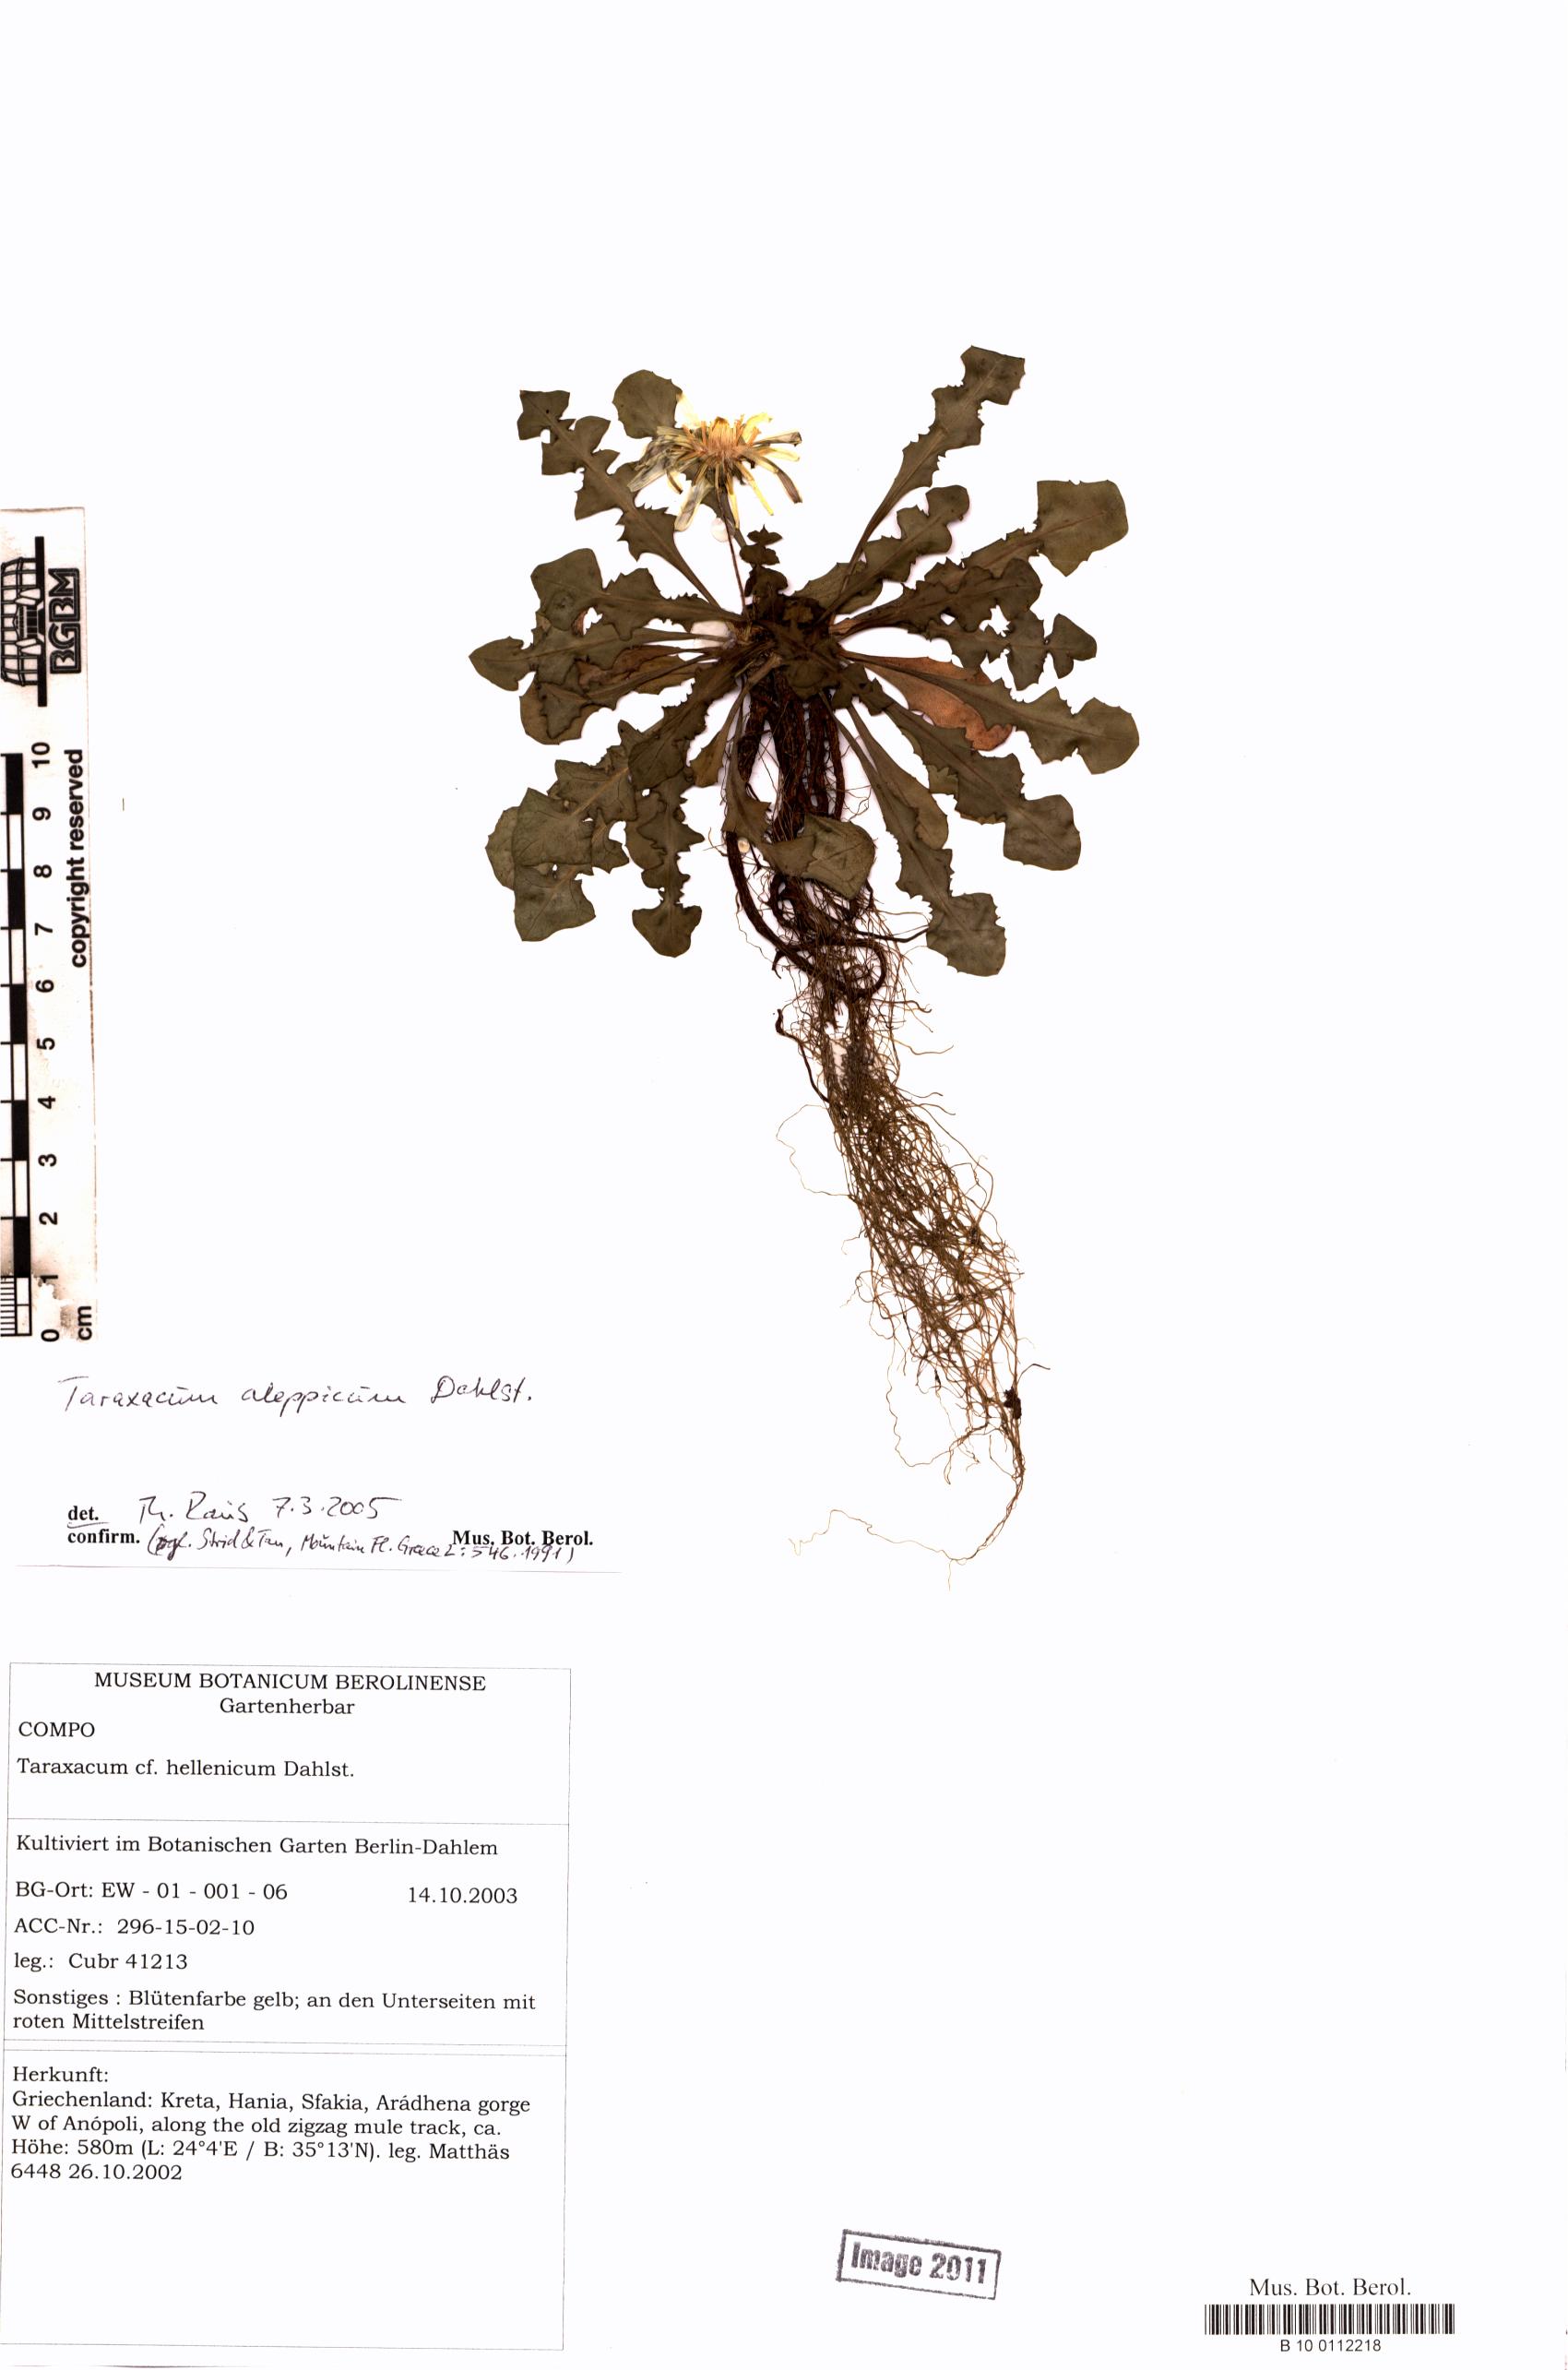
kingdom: Plantae
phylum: Tracheophyta
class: Magnoliopsida
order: Asterales
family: Asteraceae
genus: Taraxacum
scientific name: Taraxacum aleppicum
